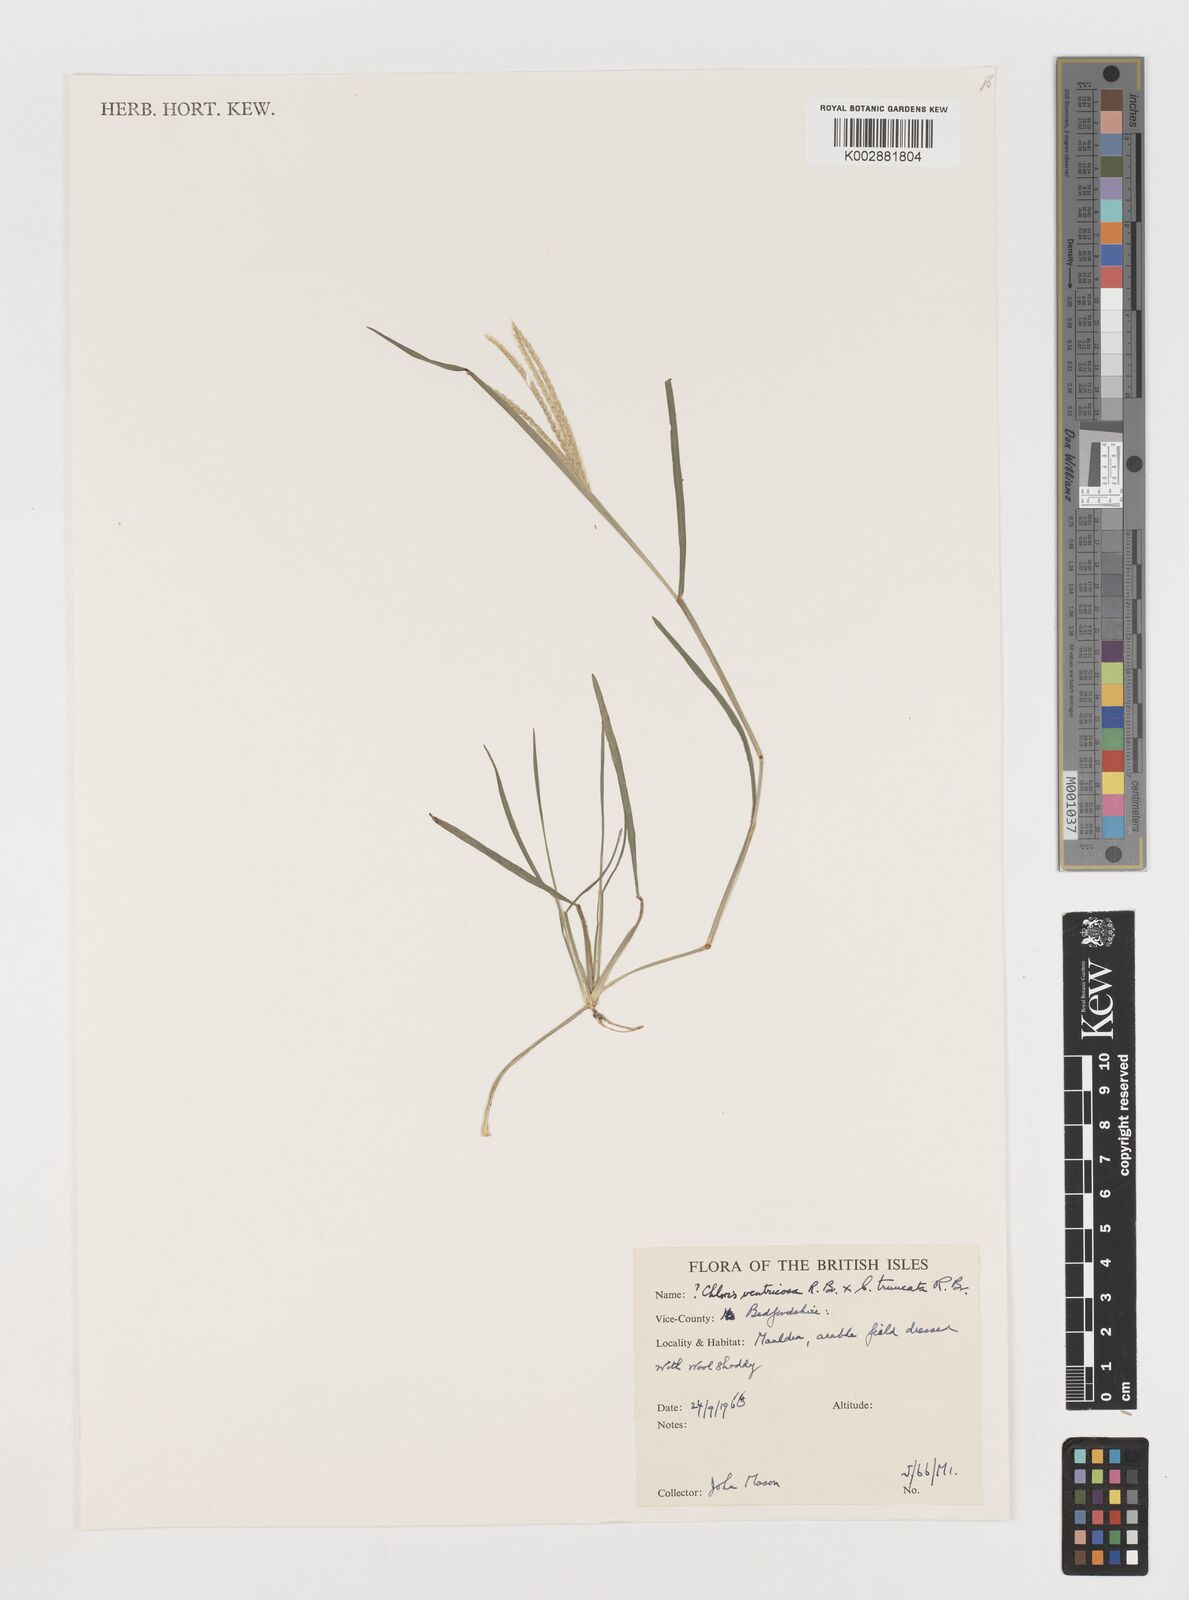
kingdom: Plantae
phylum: Tracheophyta
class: Liliopsida
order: Poales
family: Poaceae
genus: Chloris
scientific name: Chloris
